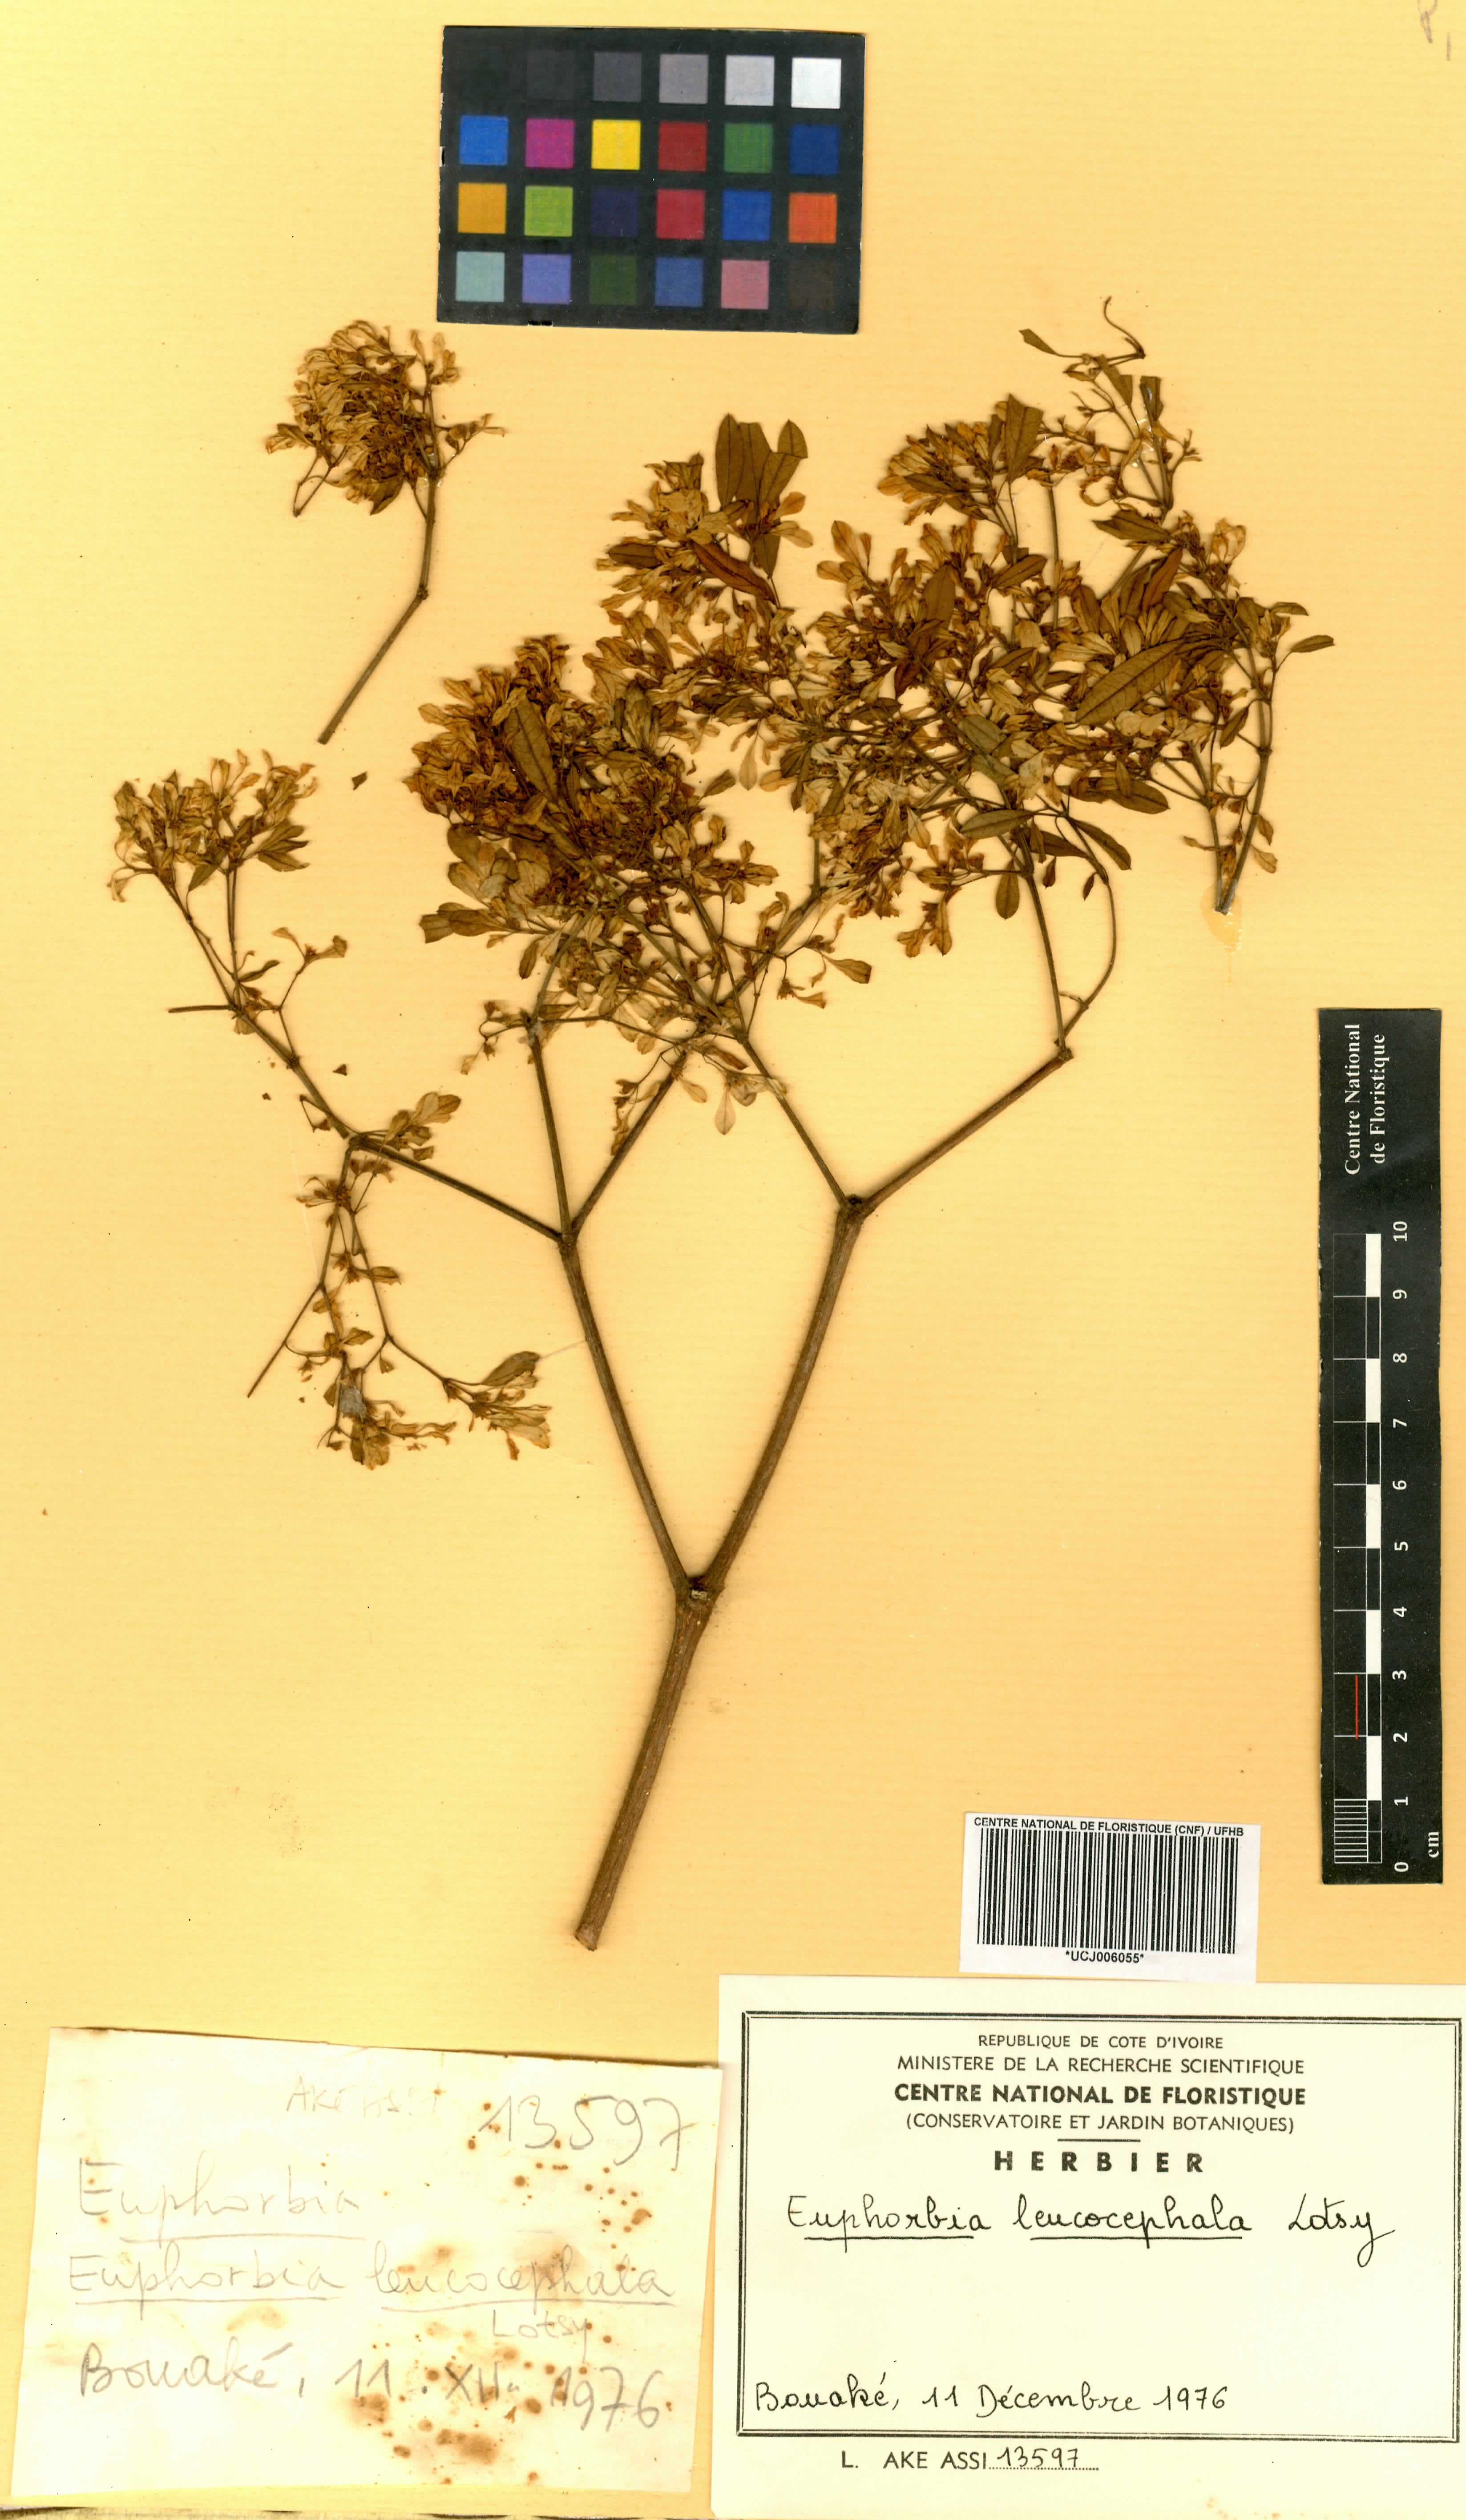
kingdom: Plantae
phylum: Tracheophyta
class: Magnoliopsida
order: Malpighiales
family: Euphorbiaceae
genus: Euphorbia
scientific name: Euphorbia leucocephala
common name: Pascuita
